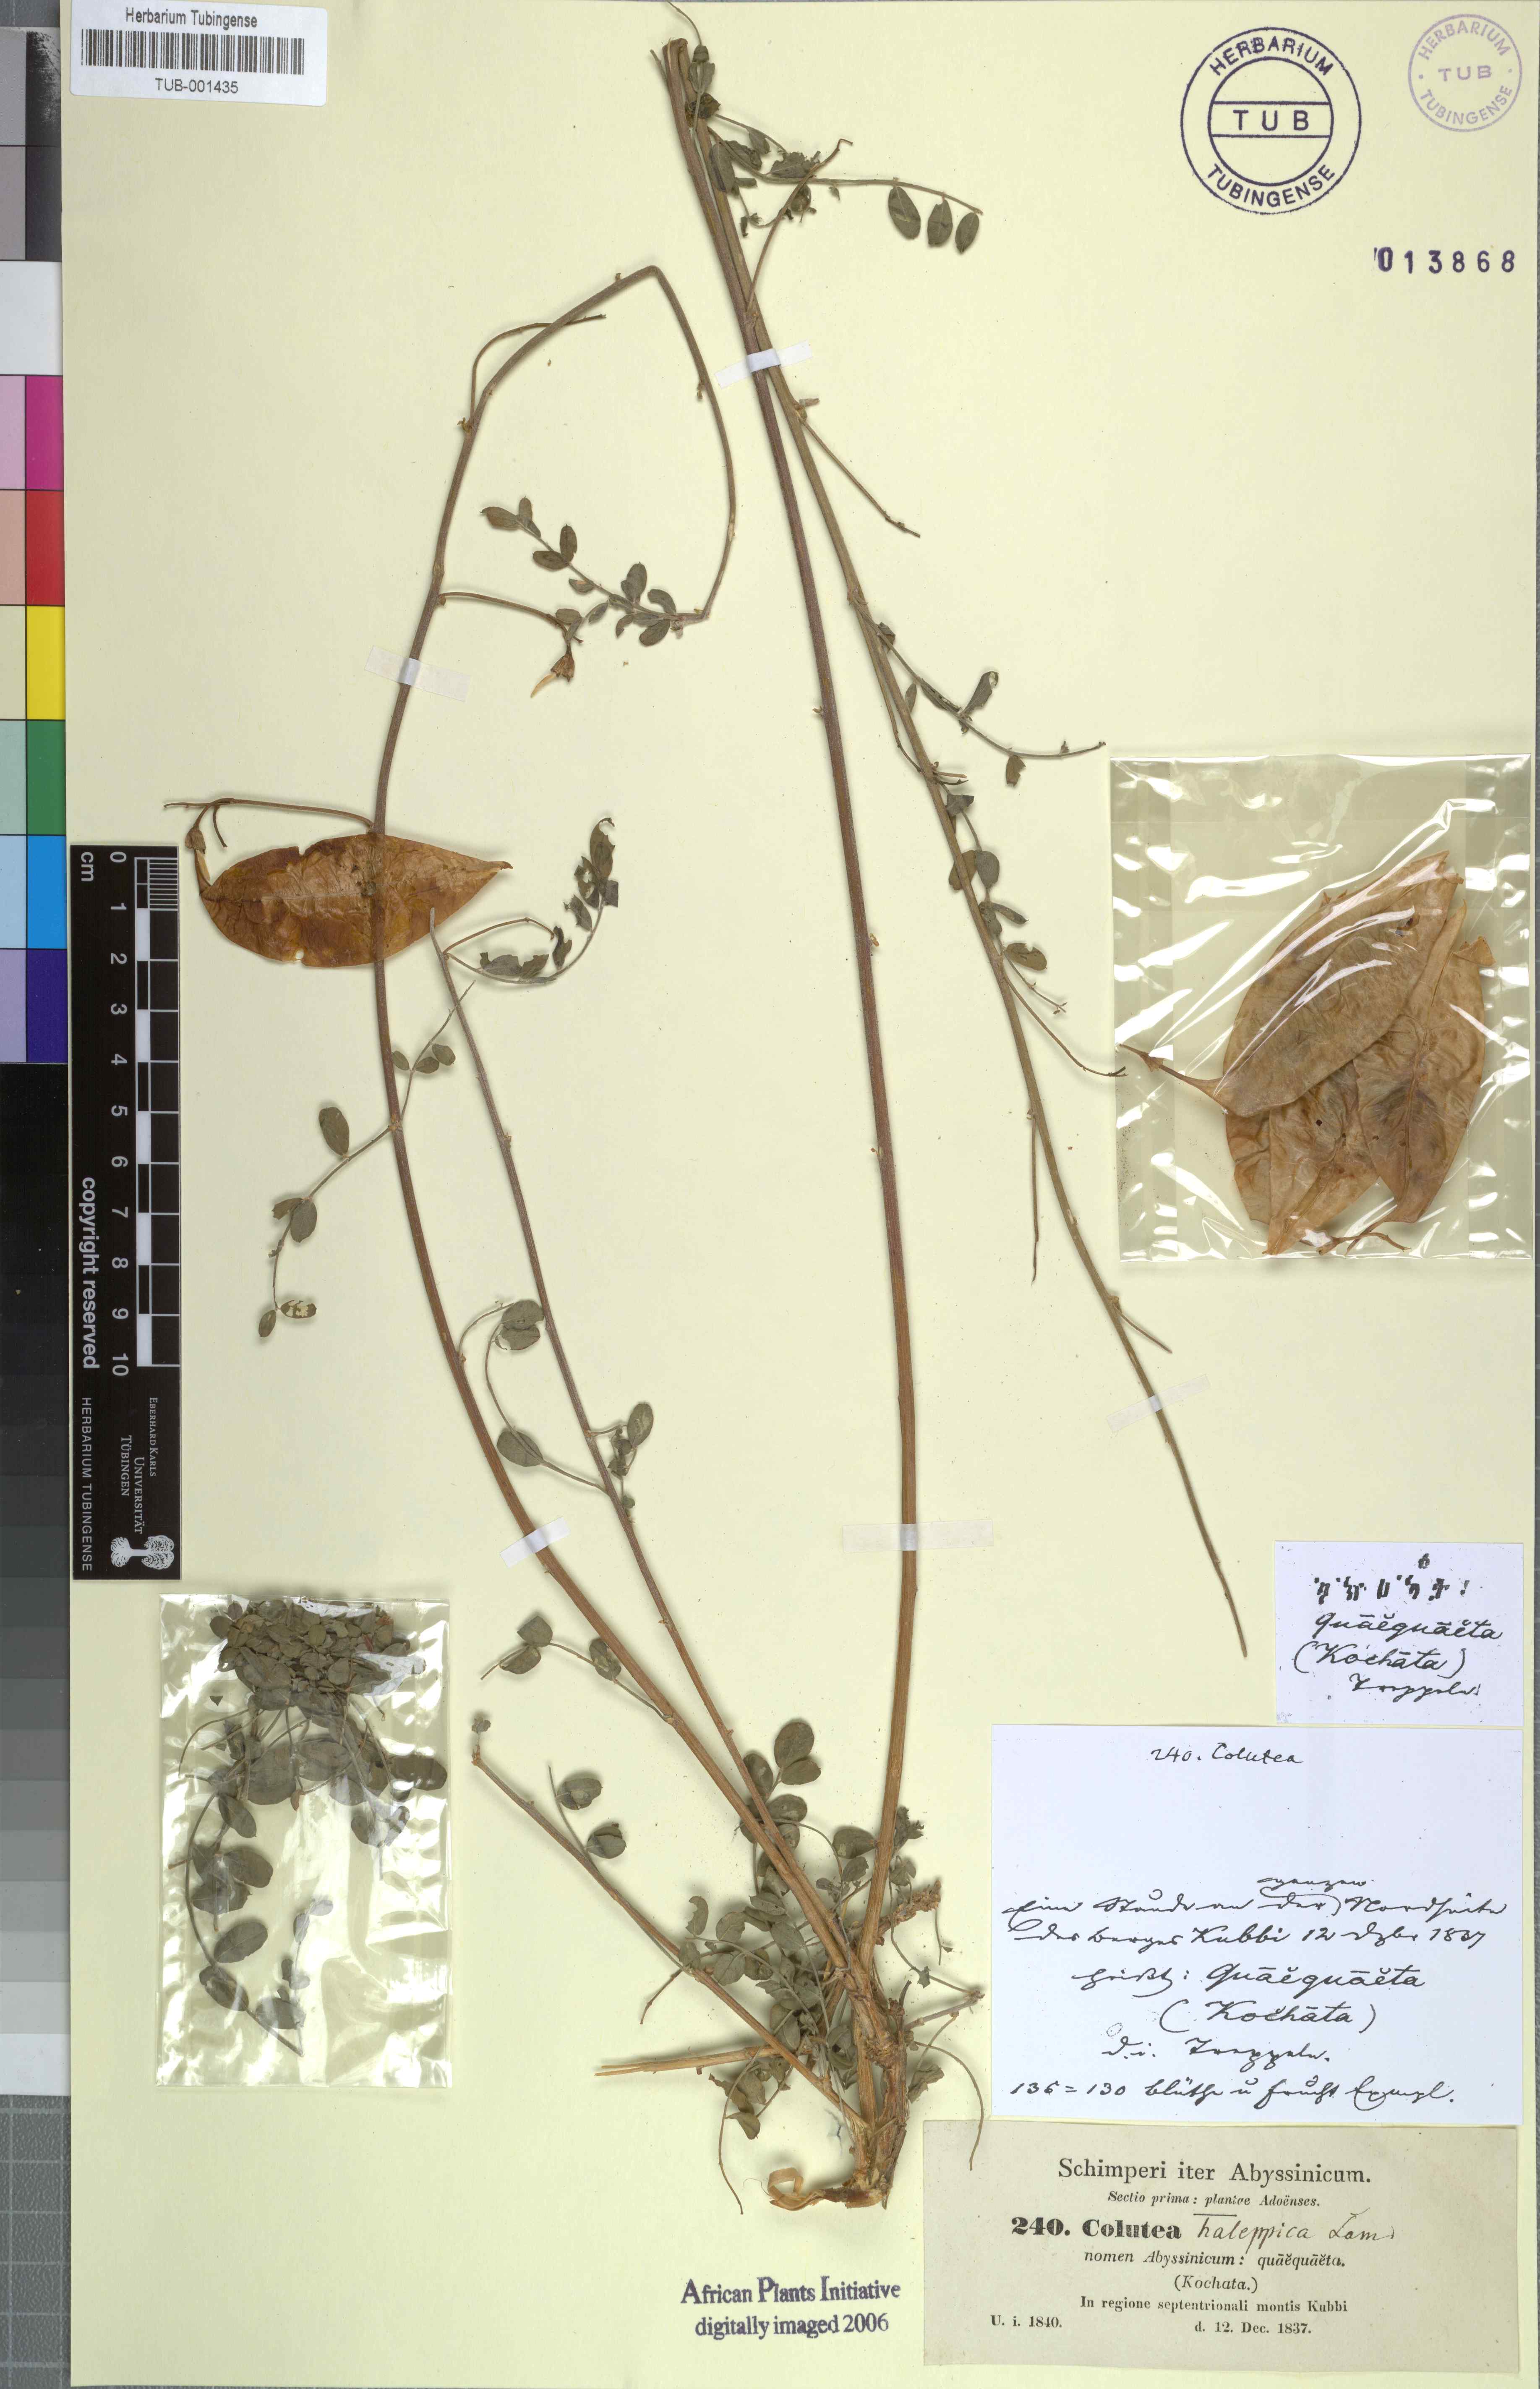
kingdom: Plantae
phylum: Tracheophyta
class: Magnoliopsida
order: Fabales
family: Fabaceae
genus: Colutea
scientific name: Colutea istria
